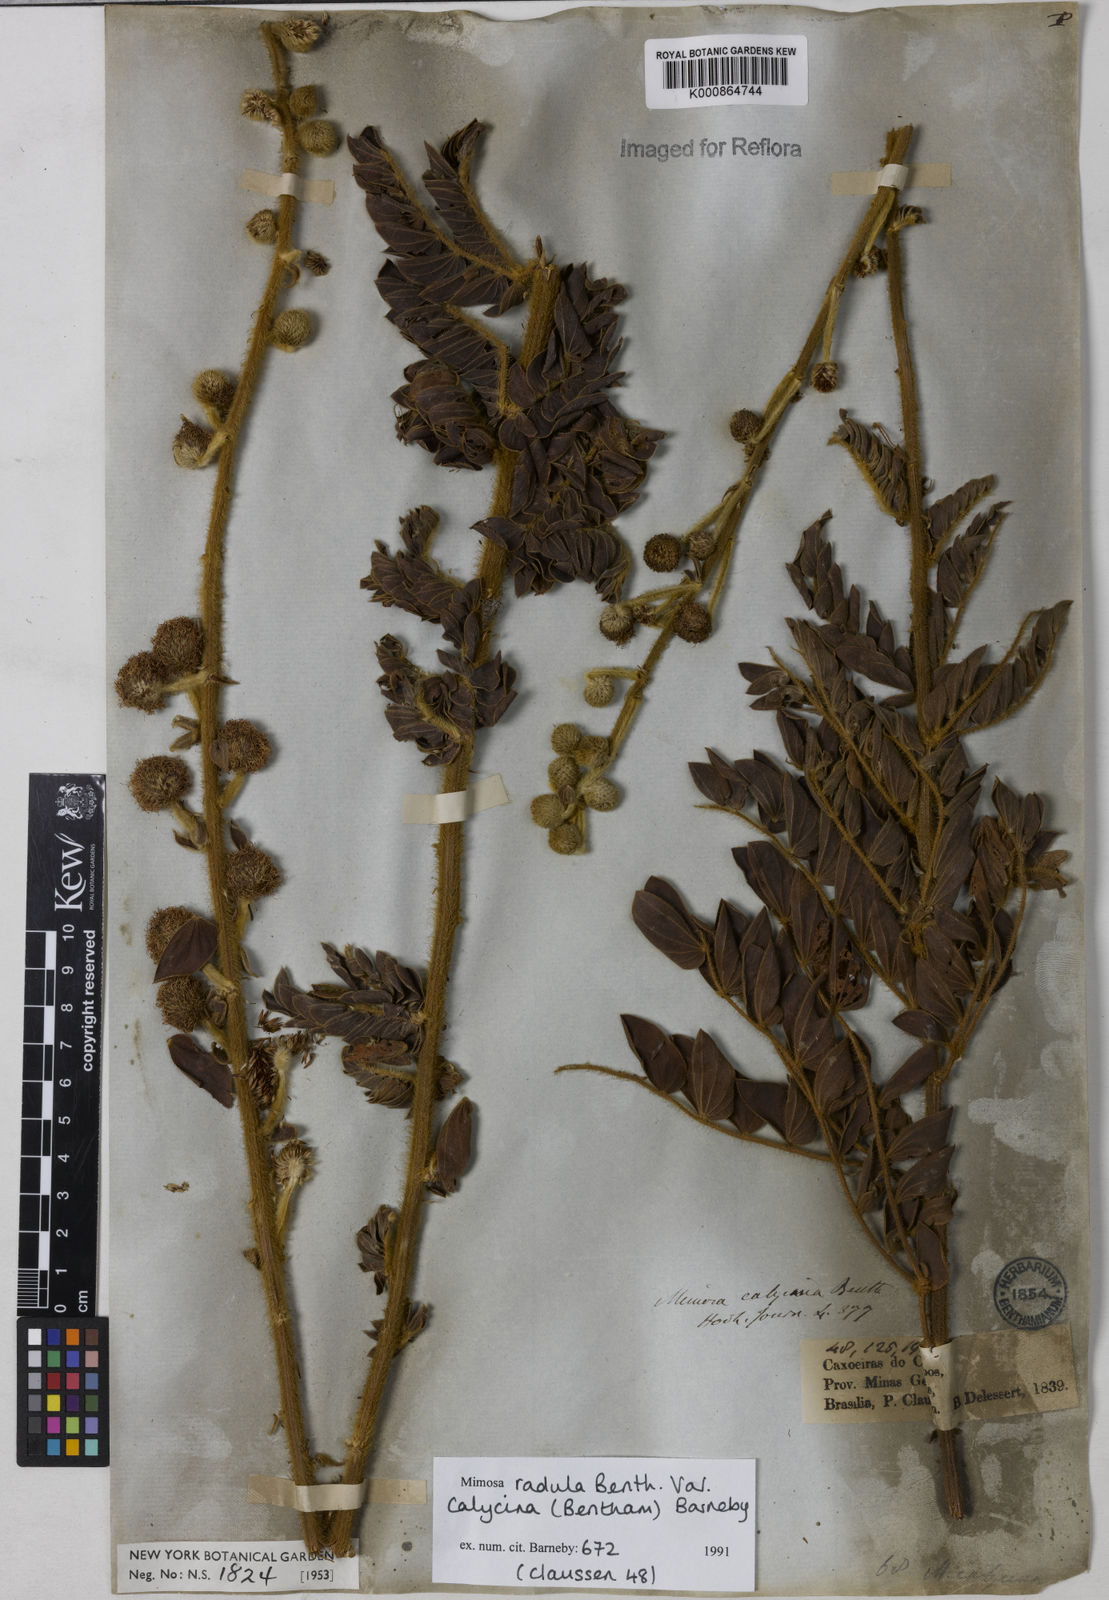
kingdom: Plantae
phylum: Tracheophyta
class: Magnoliopsida
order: Fabales
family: Fabaceae
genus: Mimosa
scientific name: Mimosa radula
